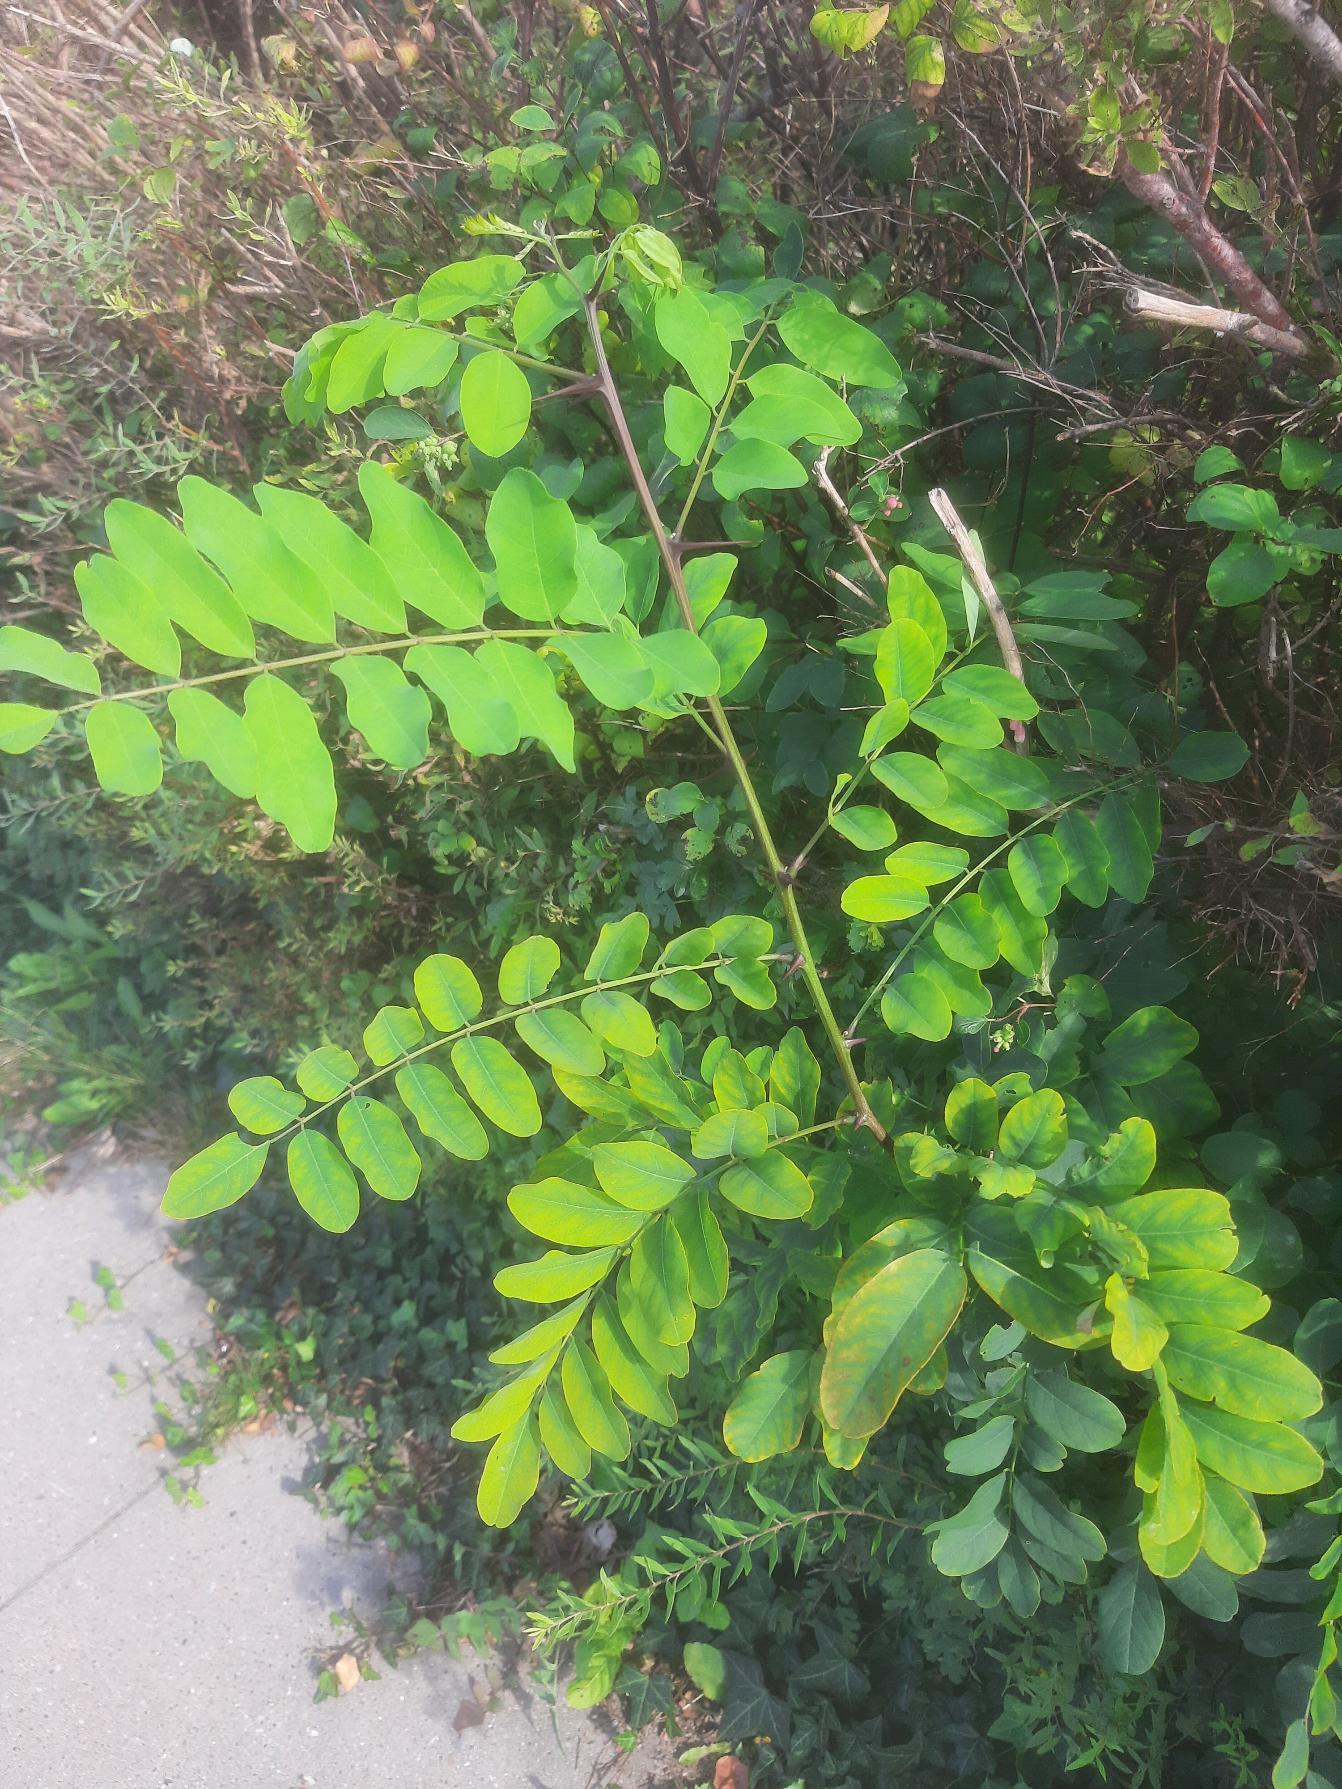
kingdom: Plantae
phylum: Tracheophyta
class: Magnoliopsida
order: Fabales
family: Fabaceae
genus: Robinia
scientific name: Robinia pseudoacacia
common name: Robinie
